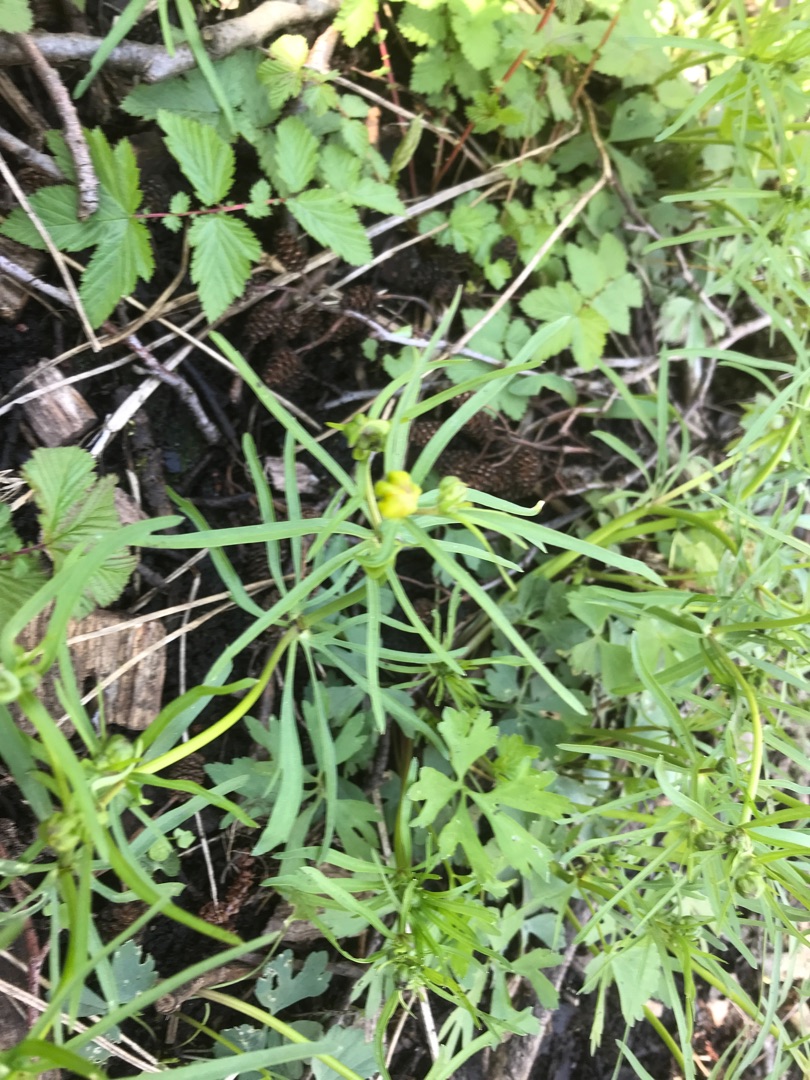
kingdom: Plantae
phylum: Tracheophyta
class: Magnoliopsida
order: Ranunculales
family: Ranunculaceae
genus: Ranunculus
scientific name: Ranunculus auricomus
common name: Nyrebladet ranunkel
